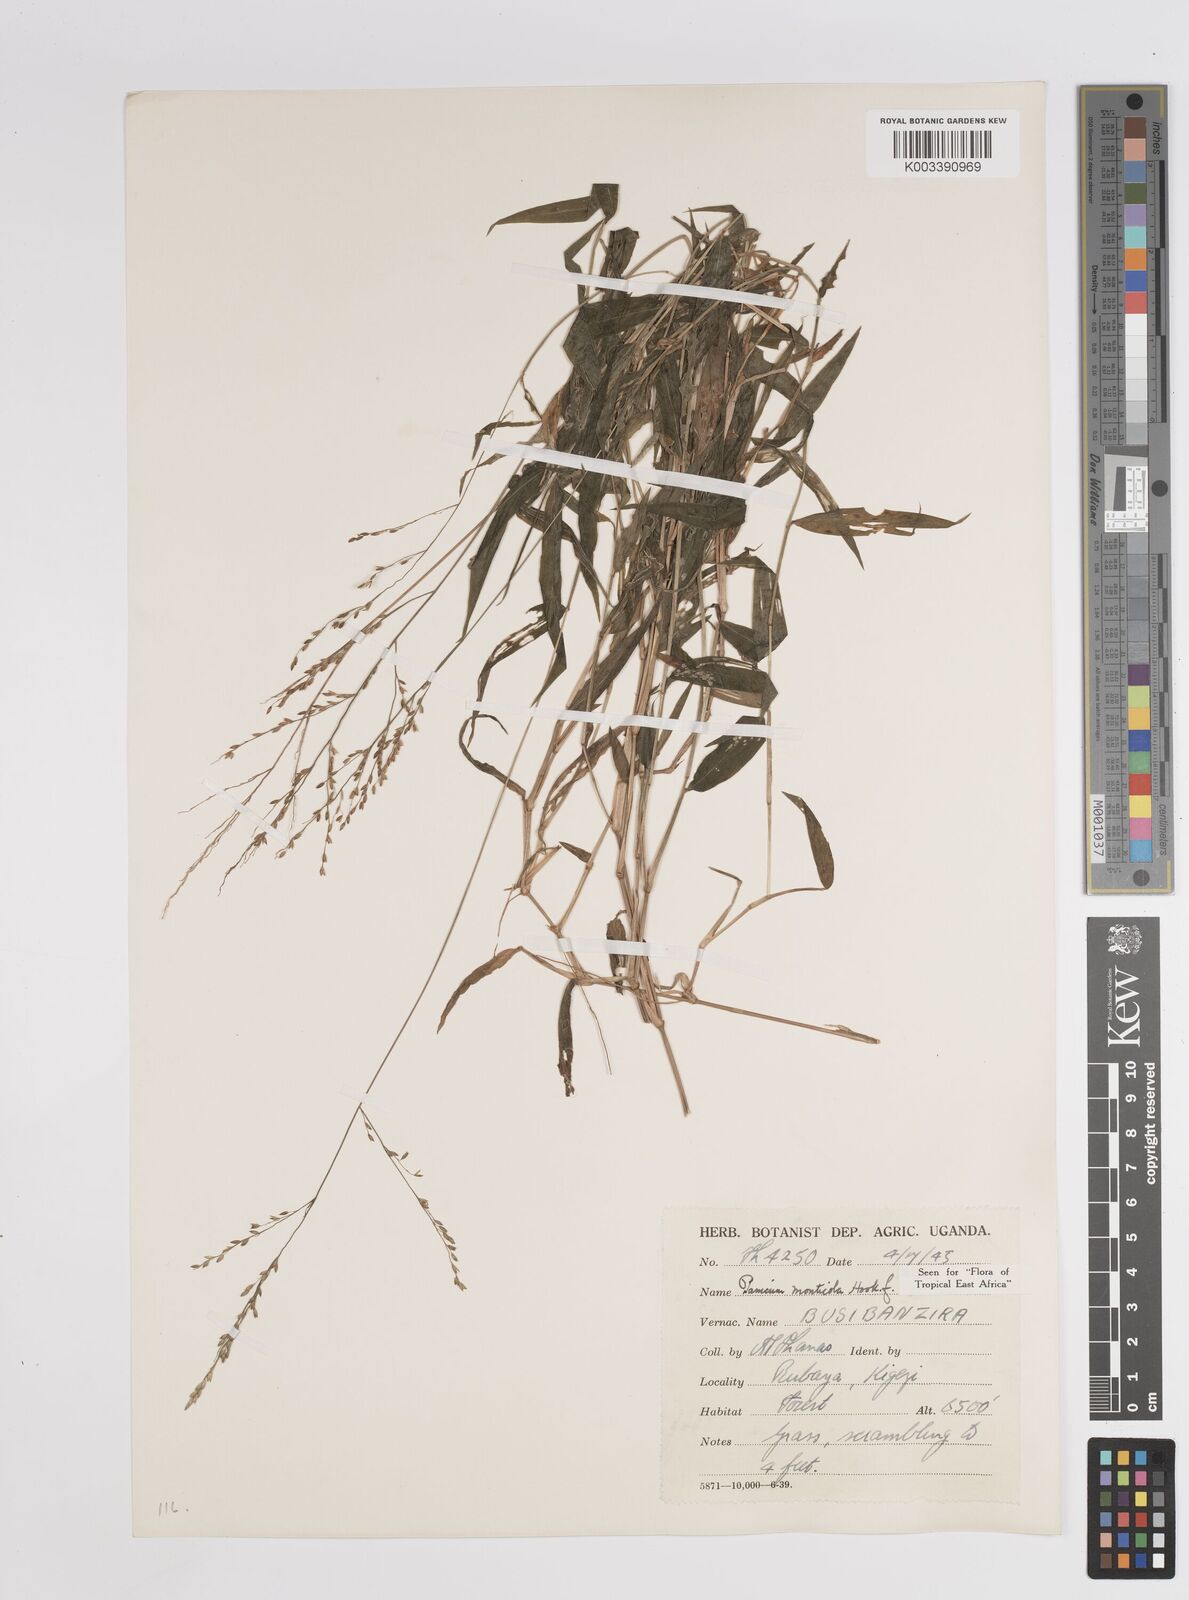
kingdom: Plantae
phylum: Tracheophyta
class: Liliopsida
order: Poales
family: Poaceae
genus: Panicum
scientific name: Panicum
